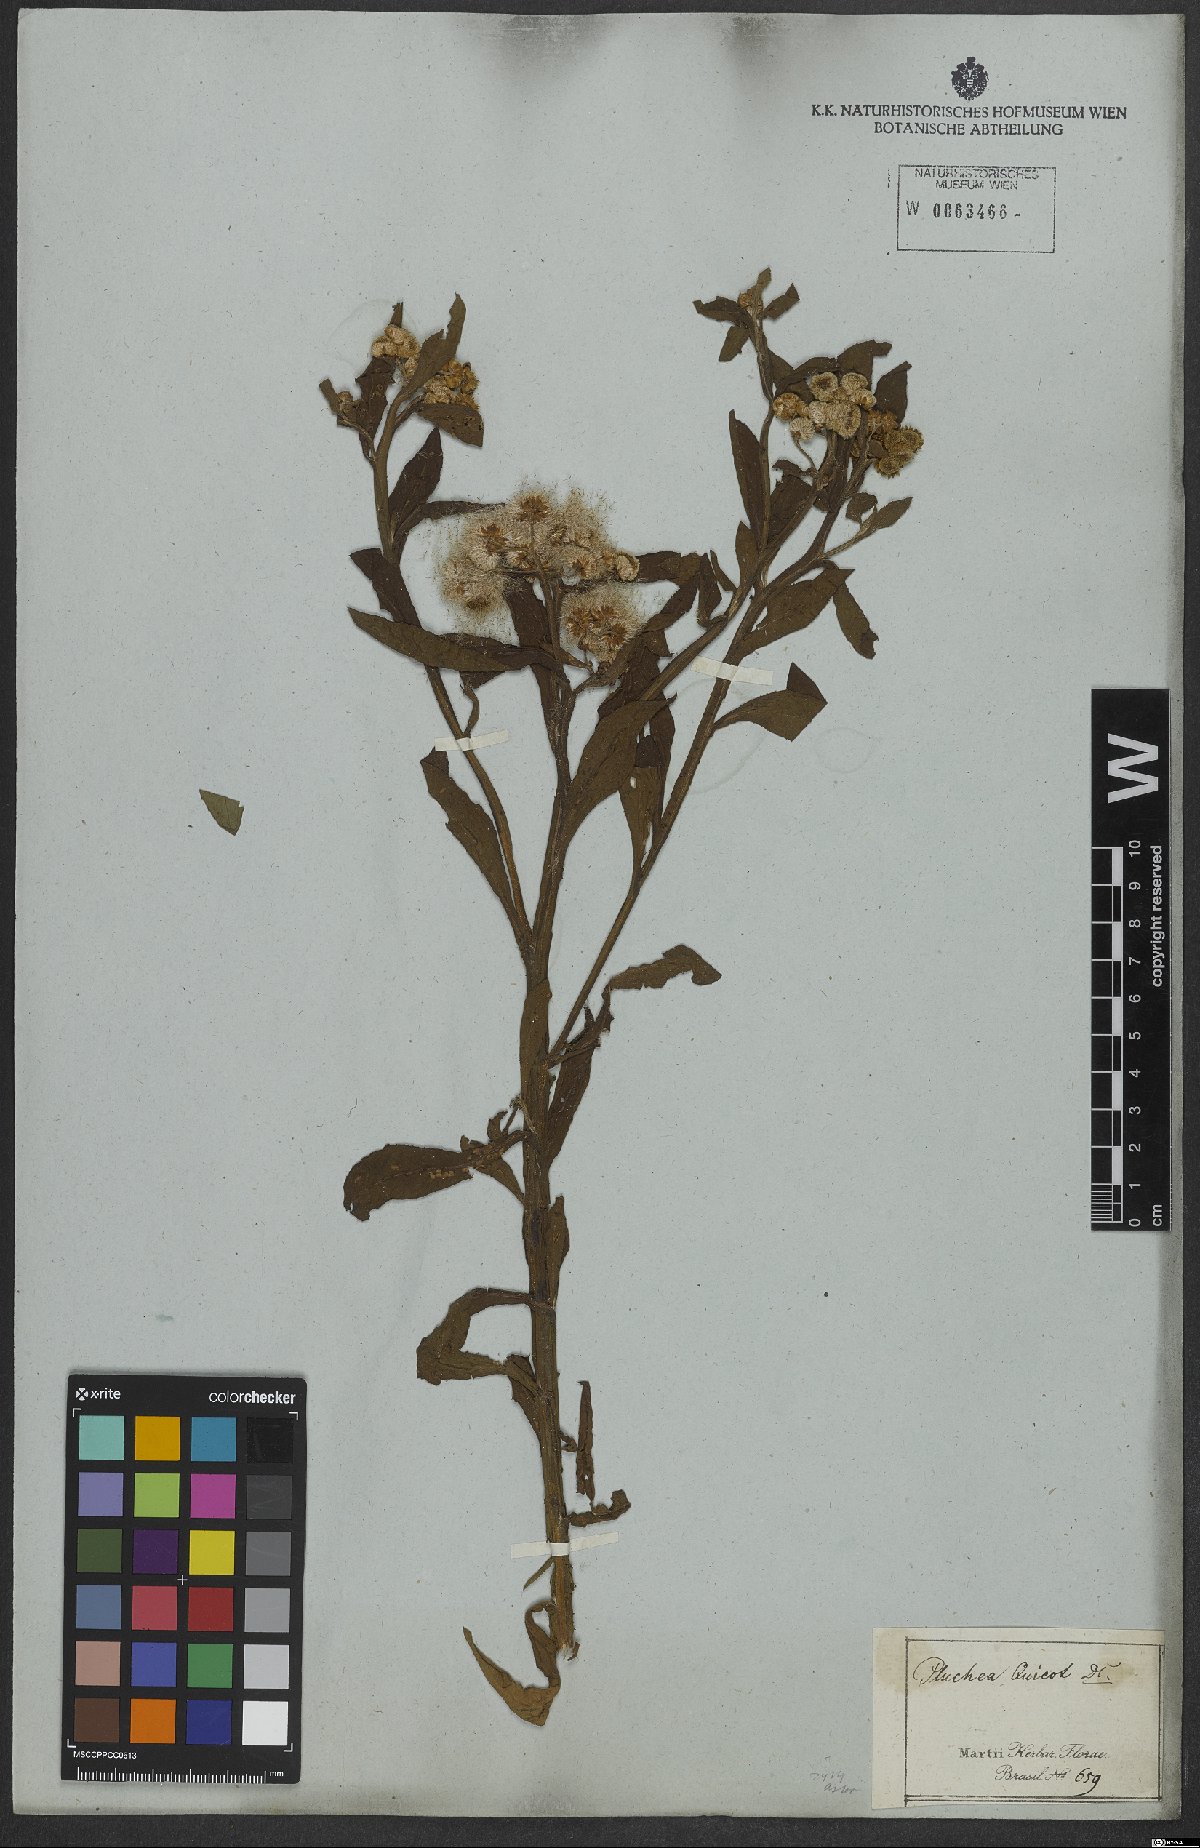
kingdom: Plantae
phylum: Tracheophyta
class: Magnoliopsida
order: Asterales
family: Asteraceae
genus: Pluchea
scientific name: Pluchea sagittalis
